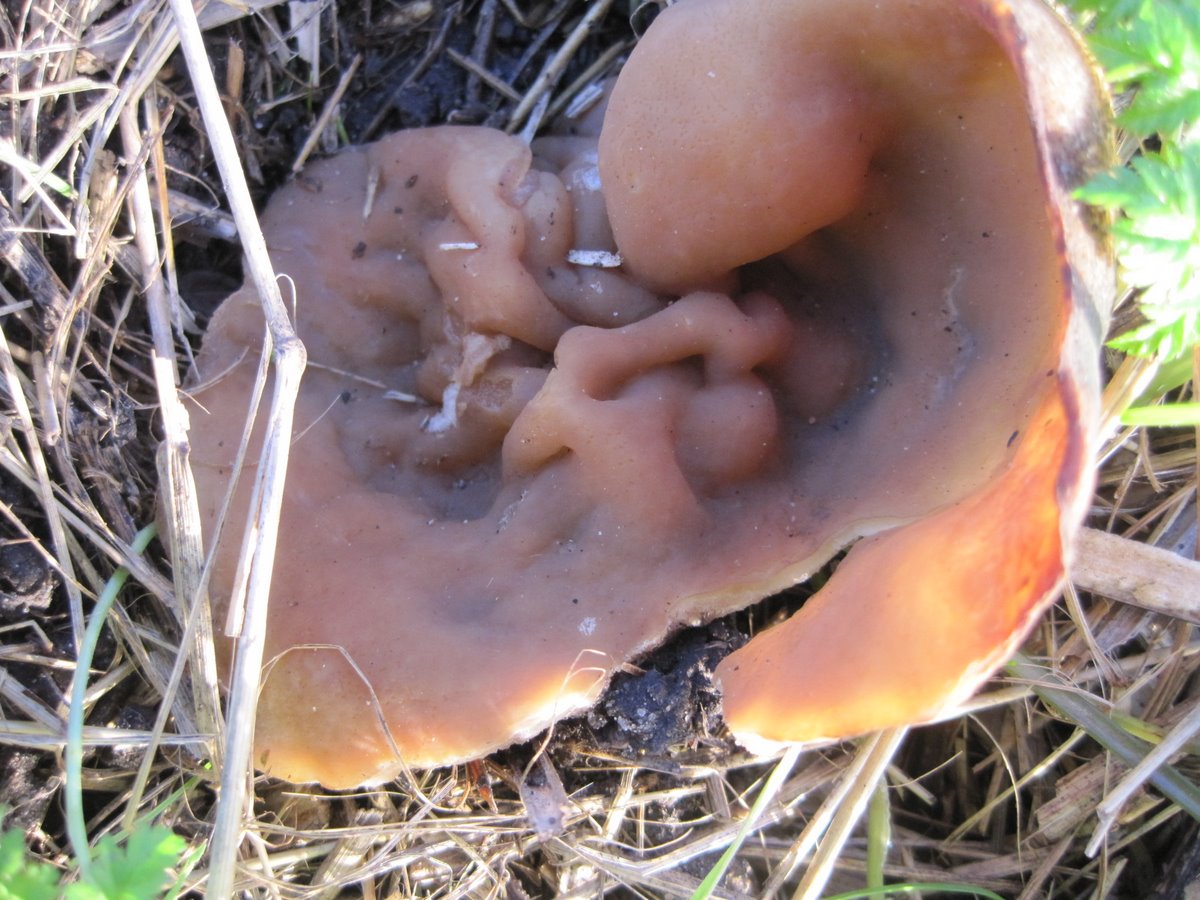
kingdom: Fungi
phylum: Ascomycota
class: Pezizomycetes
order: Pezizales
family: Pezizaceae
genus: Legaliana
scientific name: Legaliana badia
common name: leverbrun bægersvamp
